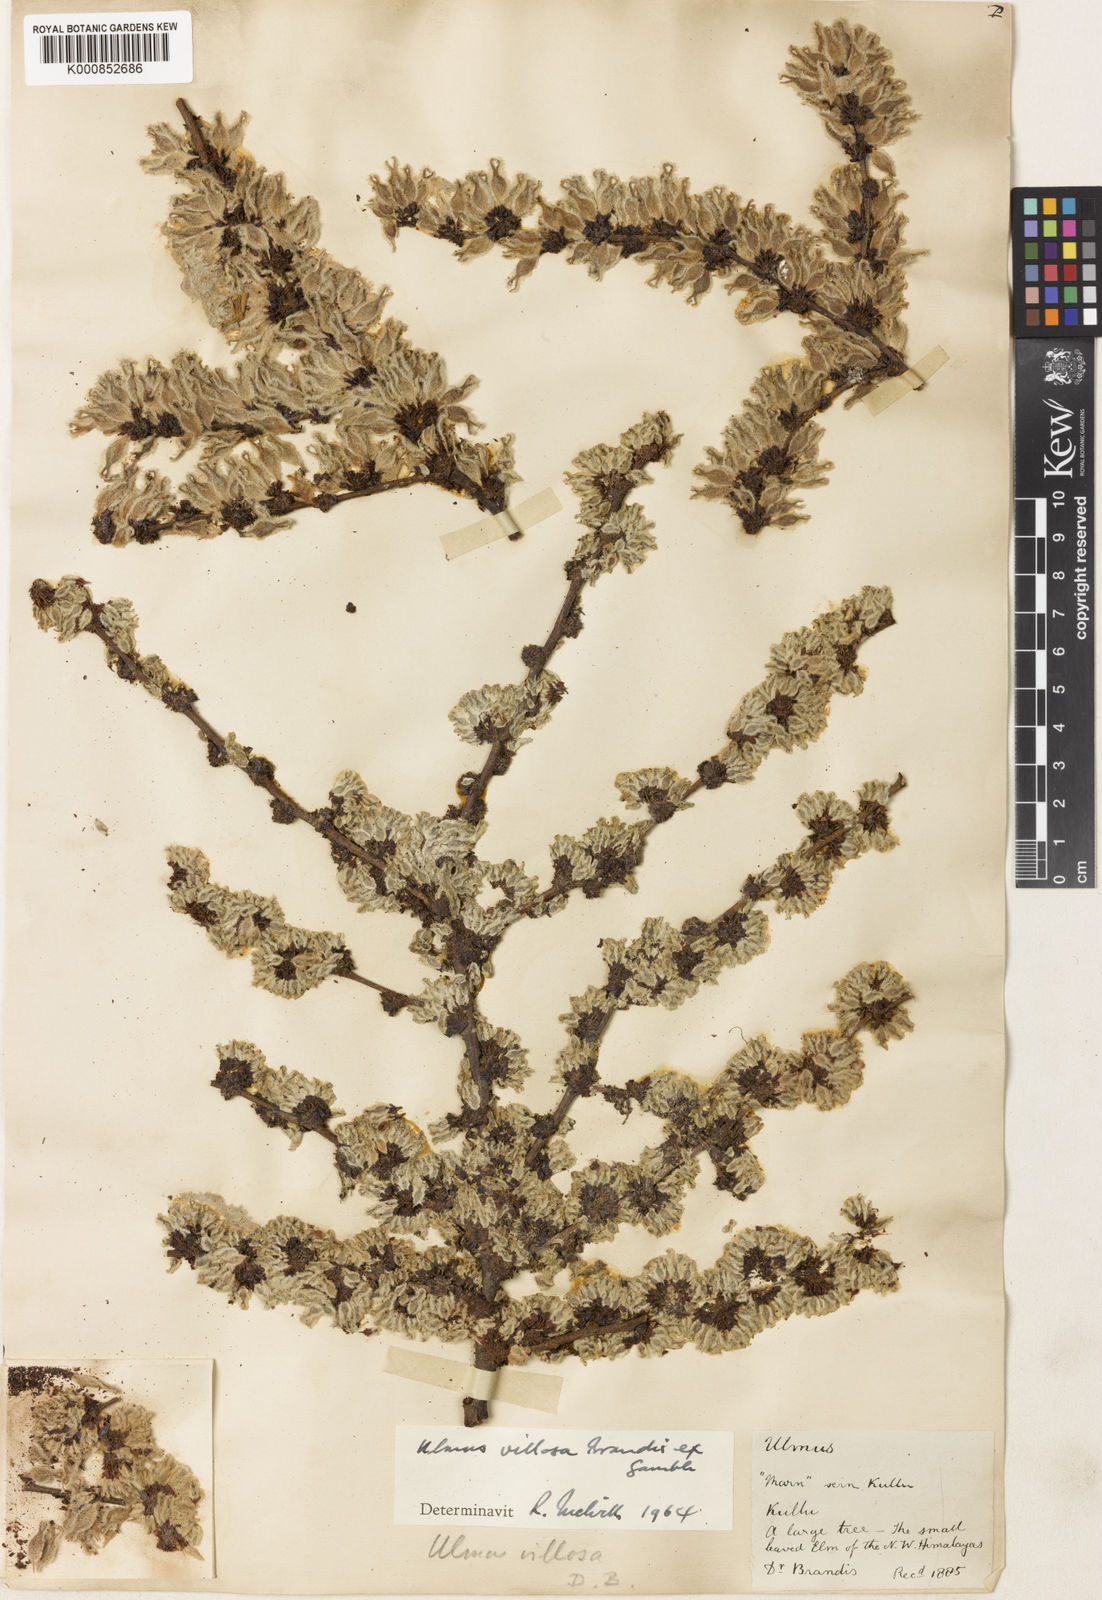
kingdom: Plantae
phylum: Tracheophyta
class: Magnoliopsida
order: Rosales
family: Ulmaceae
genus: Ulmus
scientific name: Ulmus villosa
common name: Cherry-bark elm
